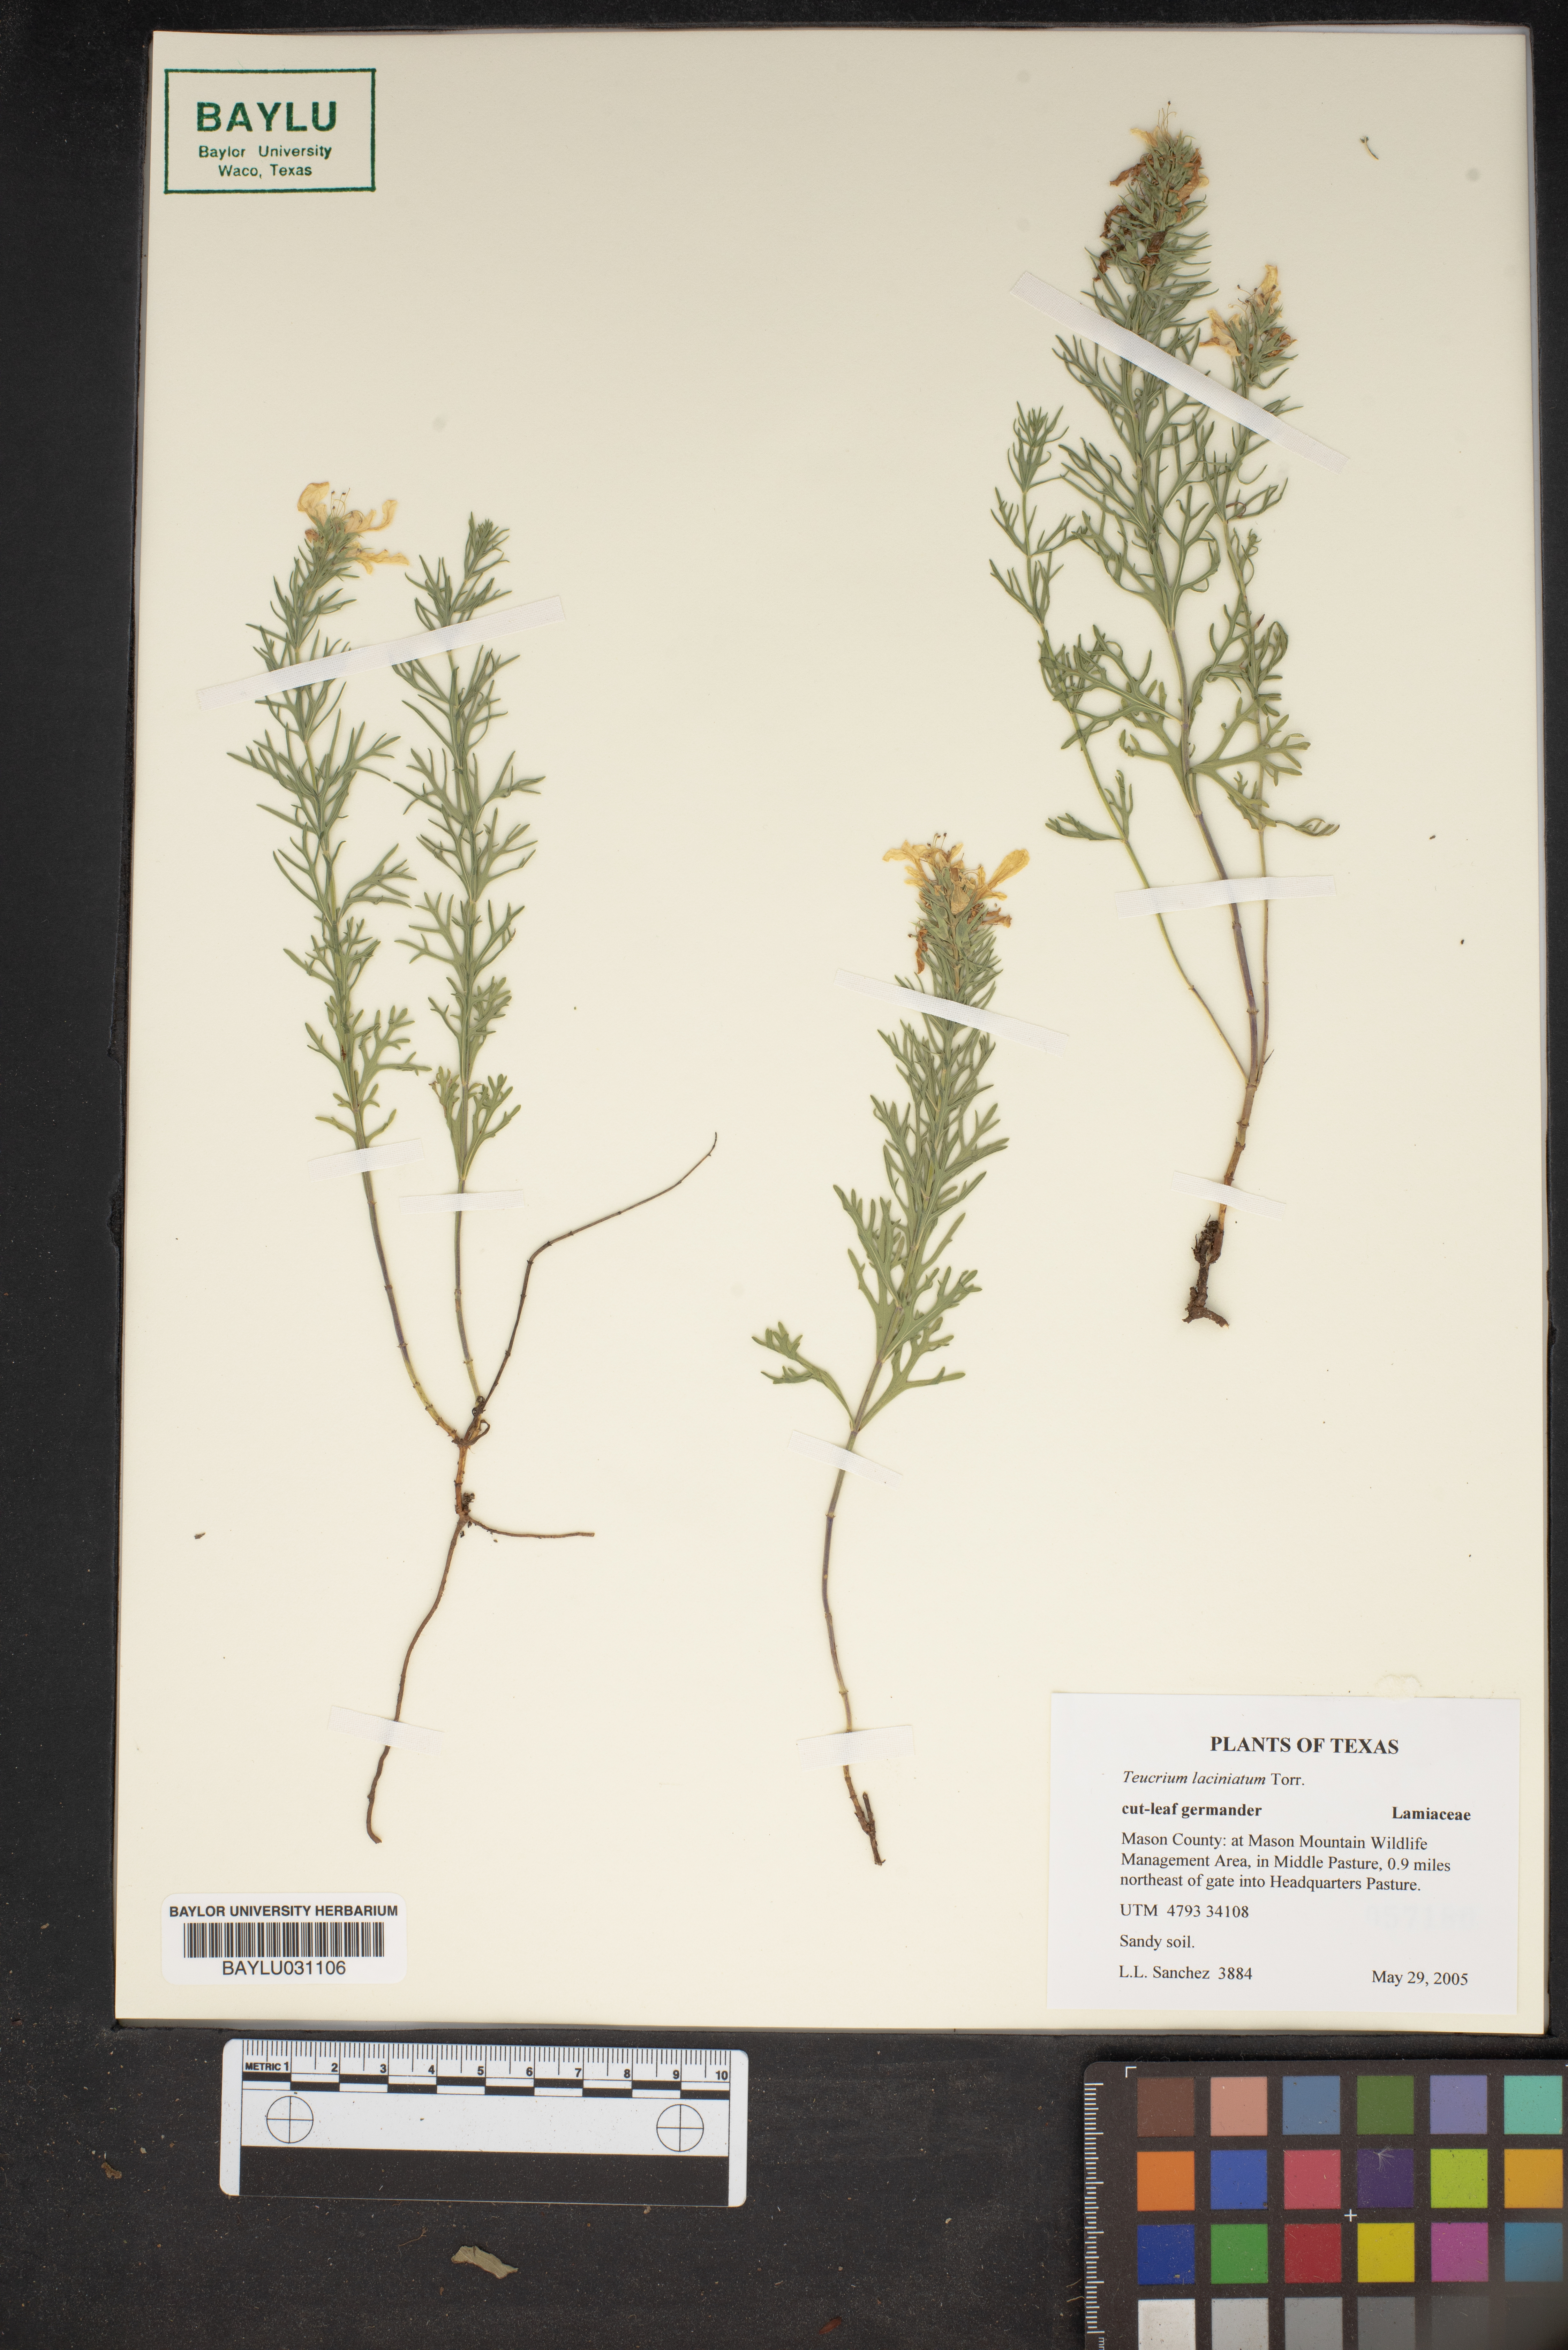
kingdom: Plantae
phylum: Tracheophyta
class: Magnoliopsida
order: Lamiales
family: Lamiaceae
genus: Teucrium
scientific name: Teucrium laciniatum
